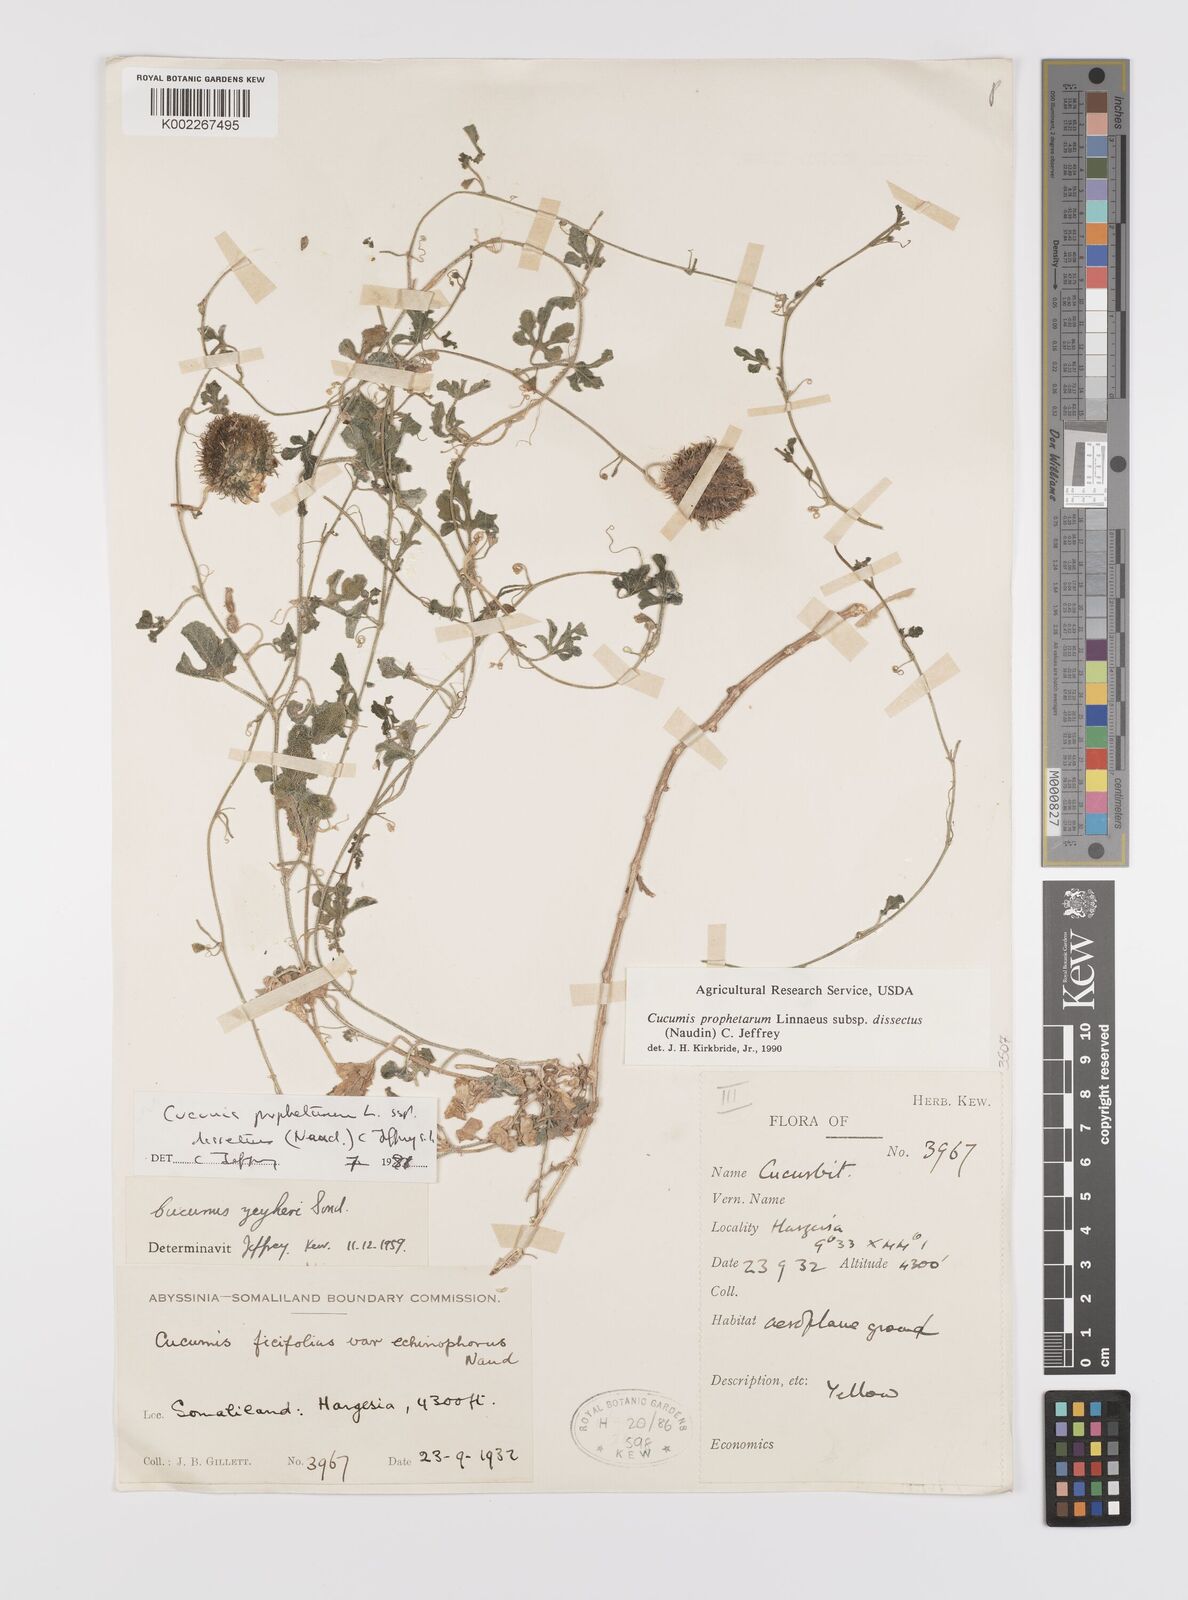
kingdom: Plantae
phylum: Tracheophyta
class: Magnoliopsida
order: Cucurbitales
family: Cucurbitaceae
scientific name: Cucurbitaceae
